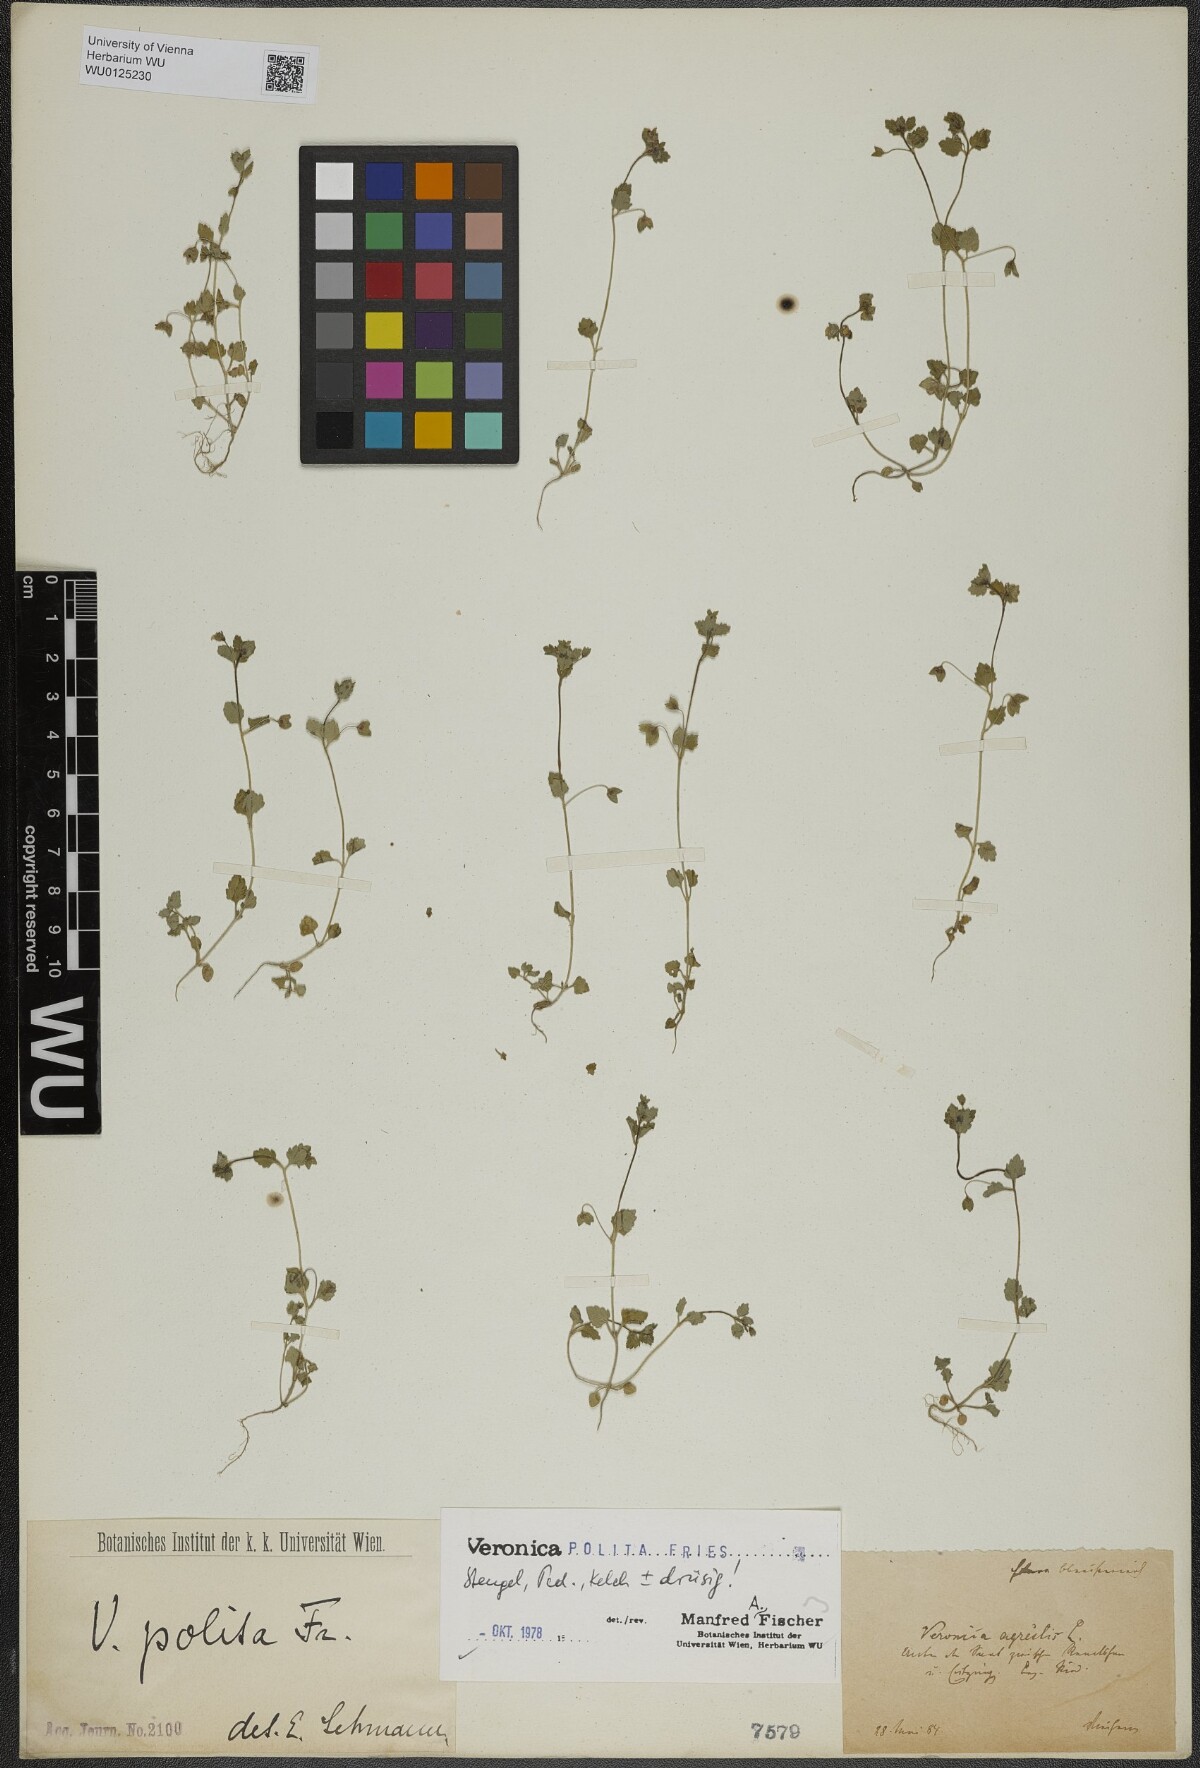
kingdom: Plantae
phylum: Tracheophyta
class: Magnoliopsida
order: Lamiales
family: Plantaginaceae
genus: Veronica
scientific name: Veronica polita
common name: Grey field-speedwell
